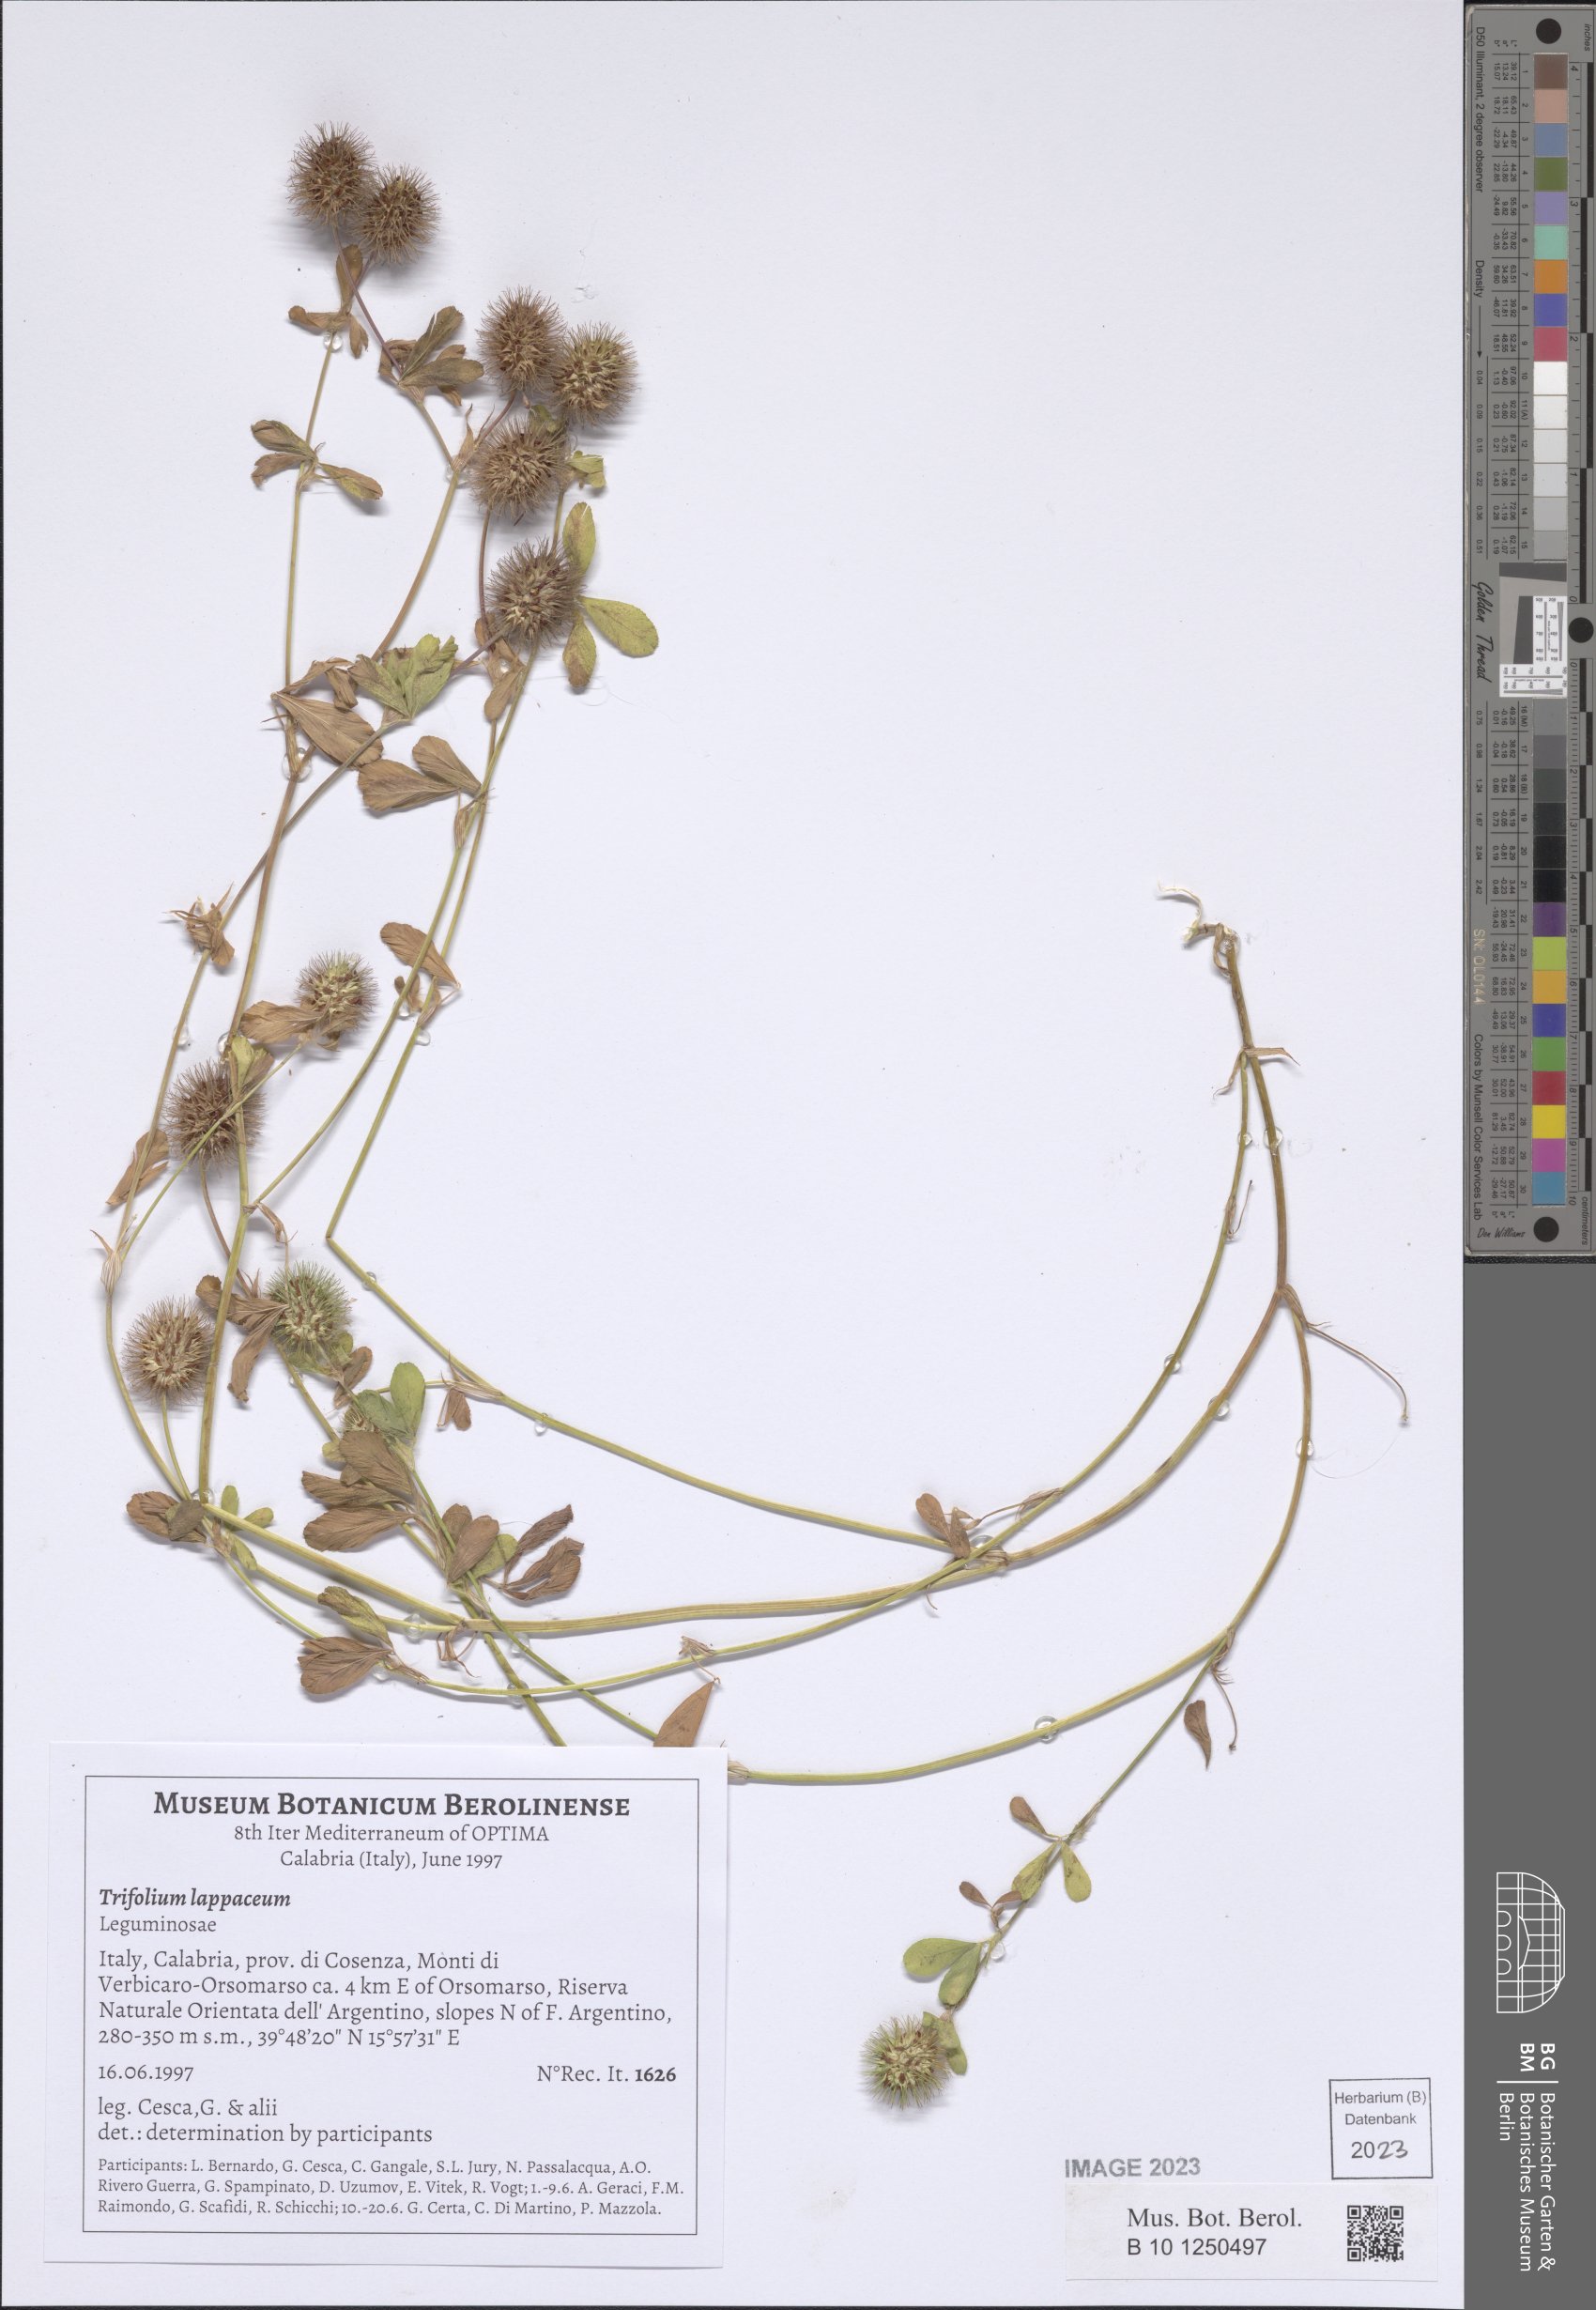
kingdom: Plantae
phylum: Tracheophyta
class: Magnoliopsida
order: Fabales
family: Fabaceae
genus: Trifolium
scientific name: Trifolium lappaceum
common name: Bur clover
